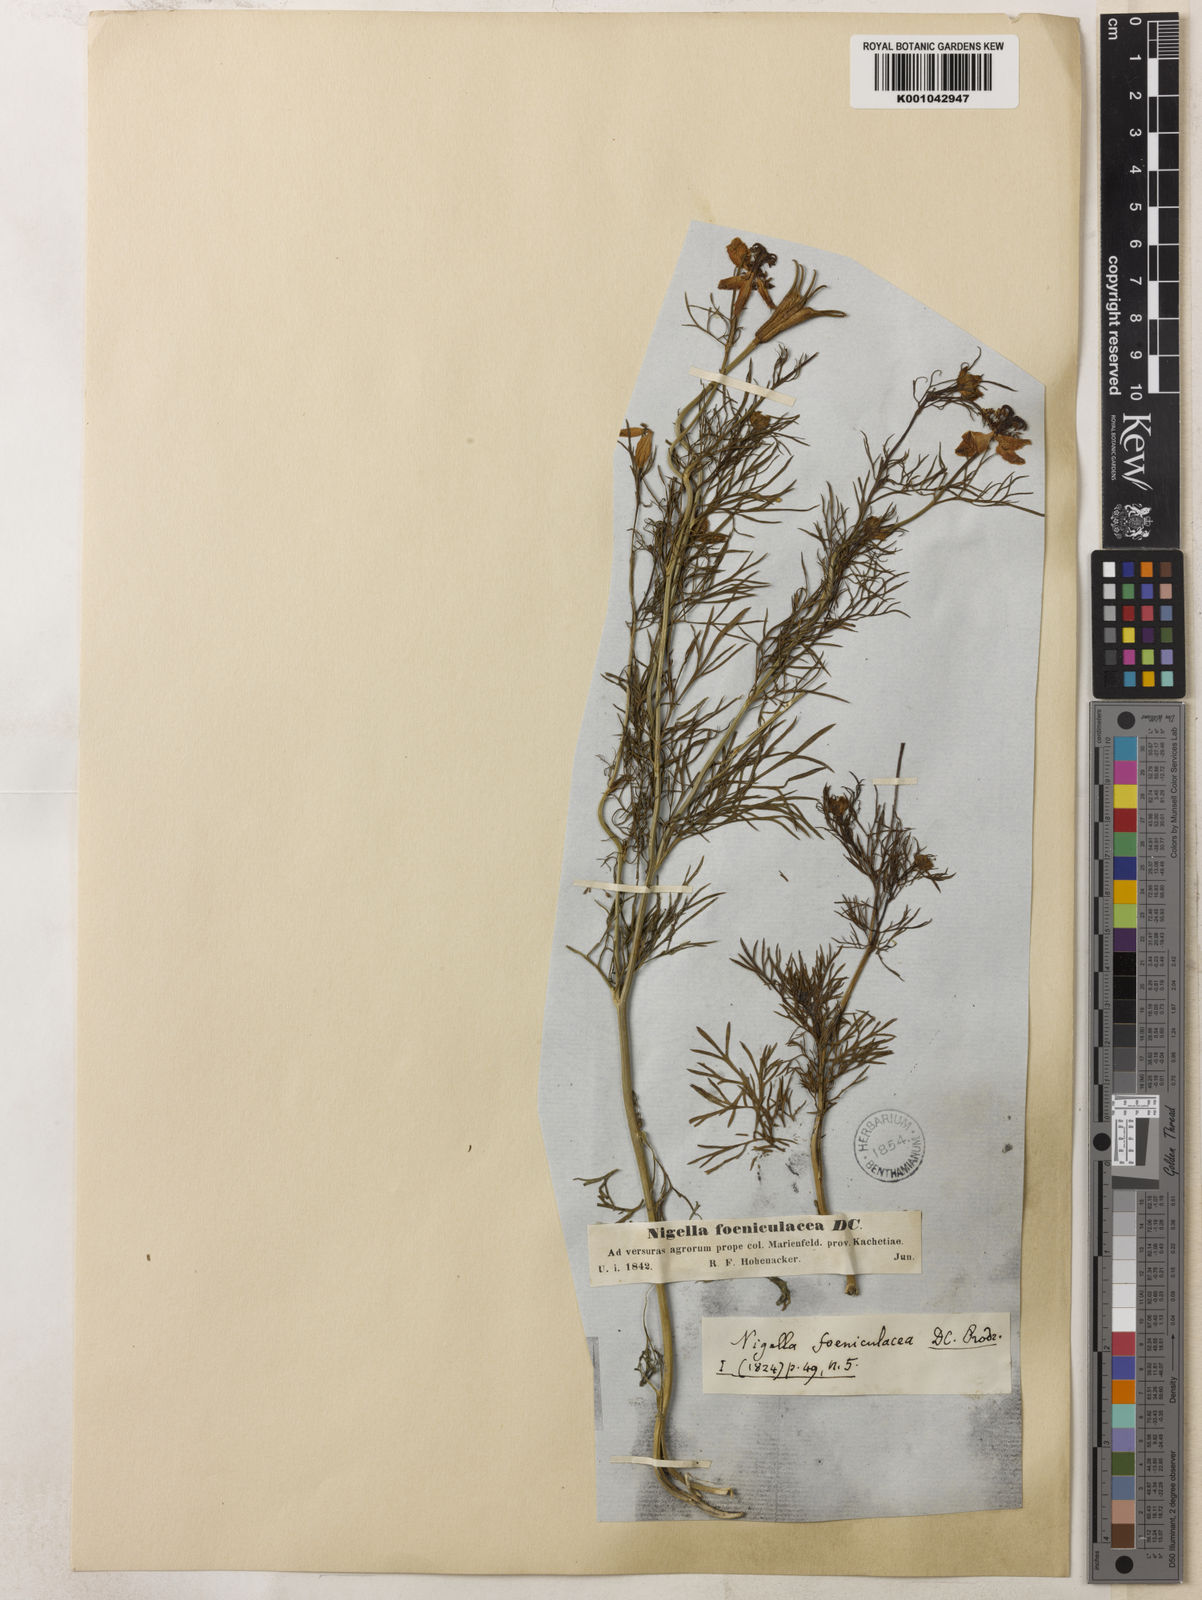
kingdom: Plantae
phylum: Tracheophyta
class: Magnoliopsida
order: Ranunculales
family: Ranunculaceae
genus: Nigella
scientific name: Nigella segetalis
